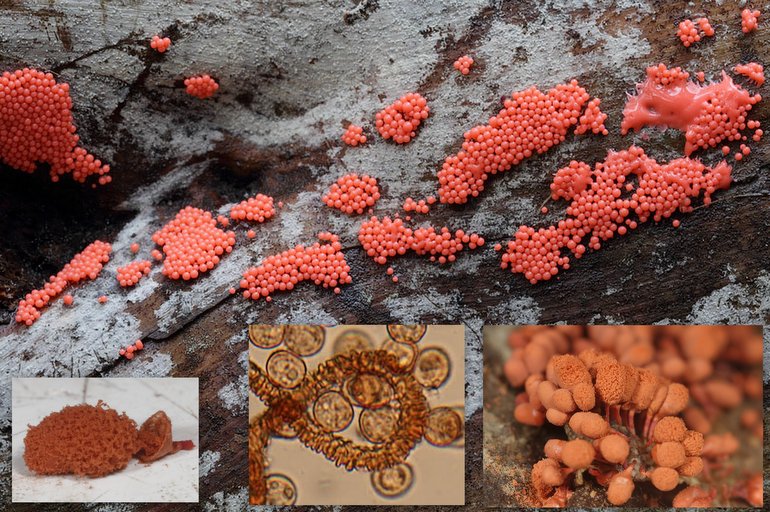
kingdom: Protozoa
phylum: Mycetozoa
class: Myxomycetes
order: Trichiales
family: Arcyriaceae
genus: Arcyria
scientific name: Arcyria ferruginea
